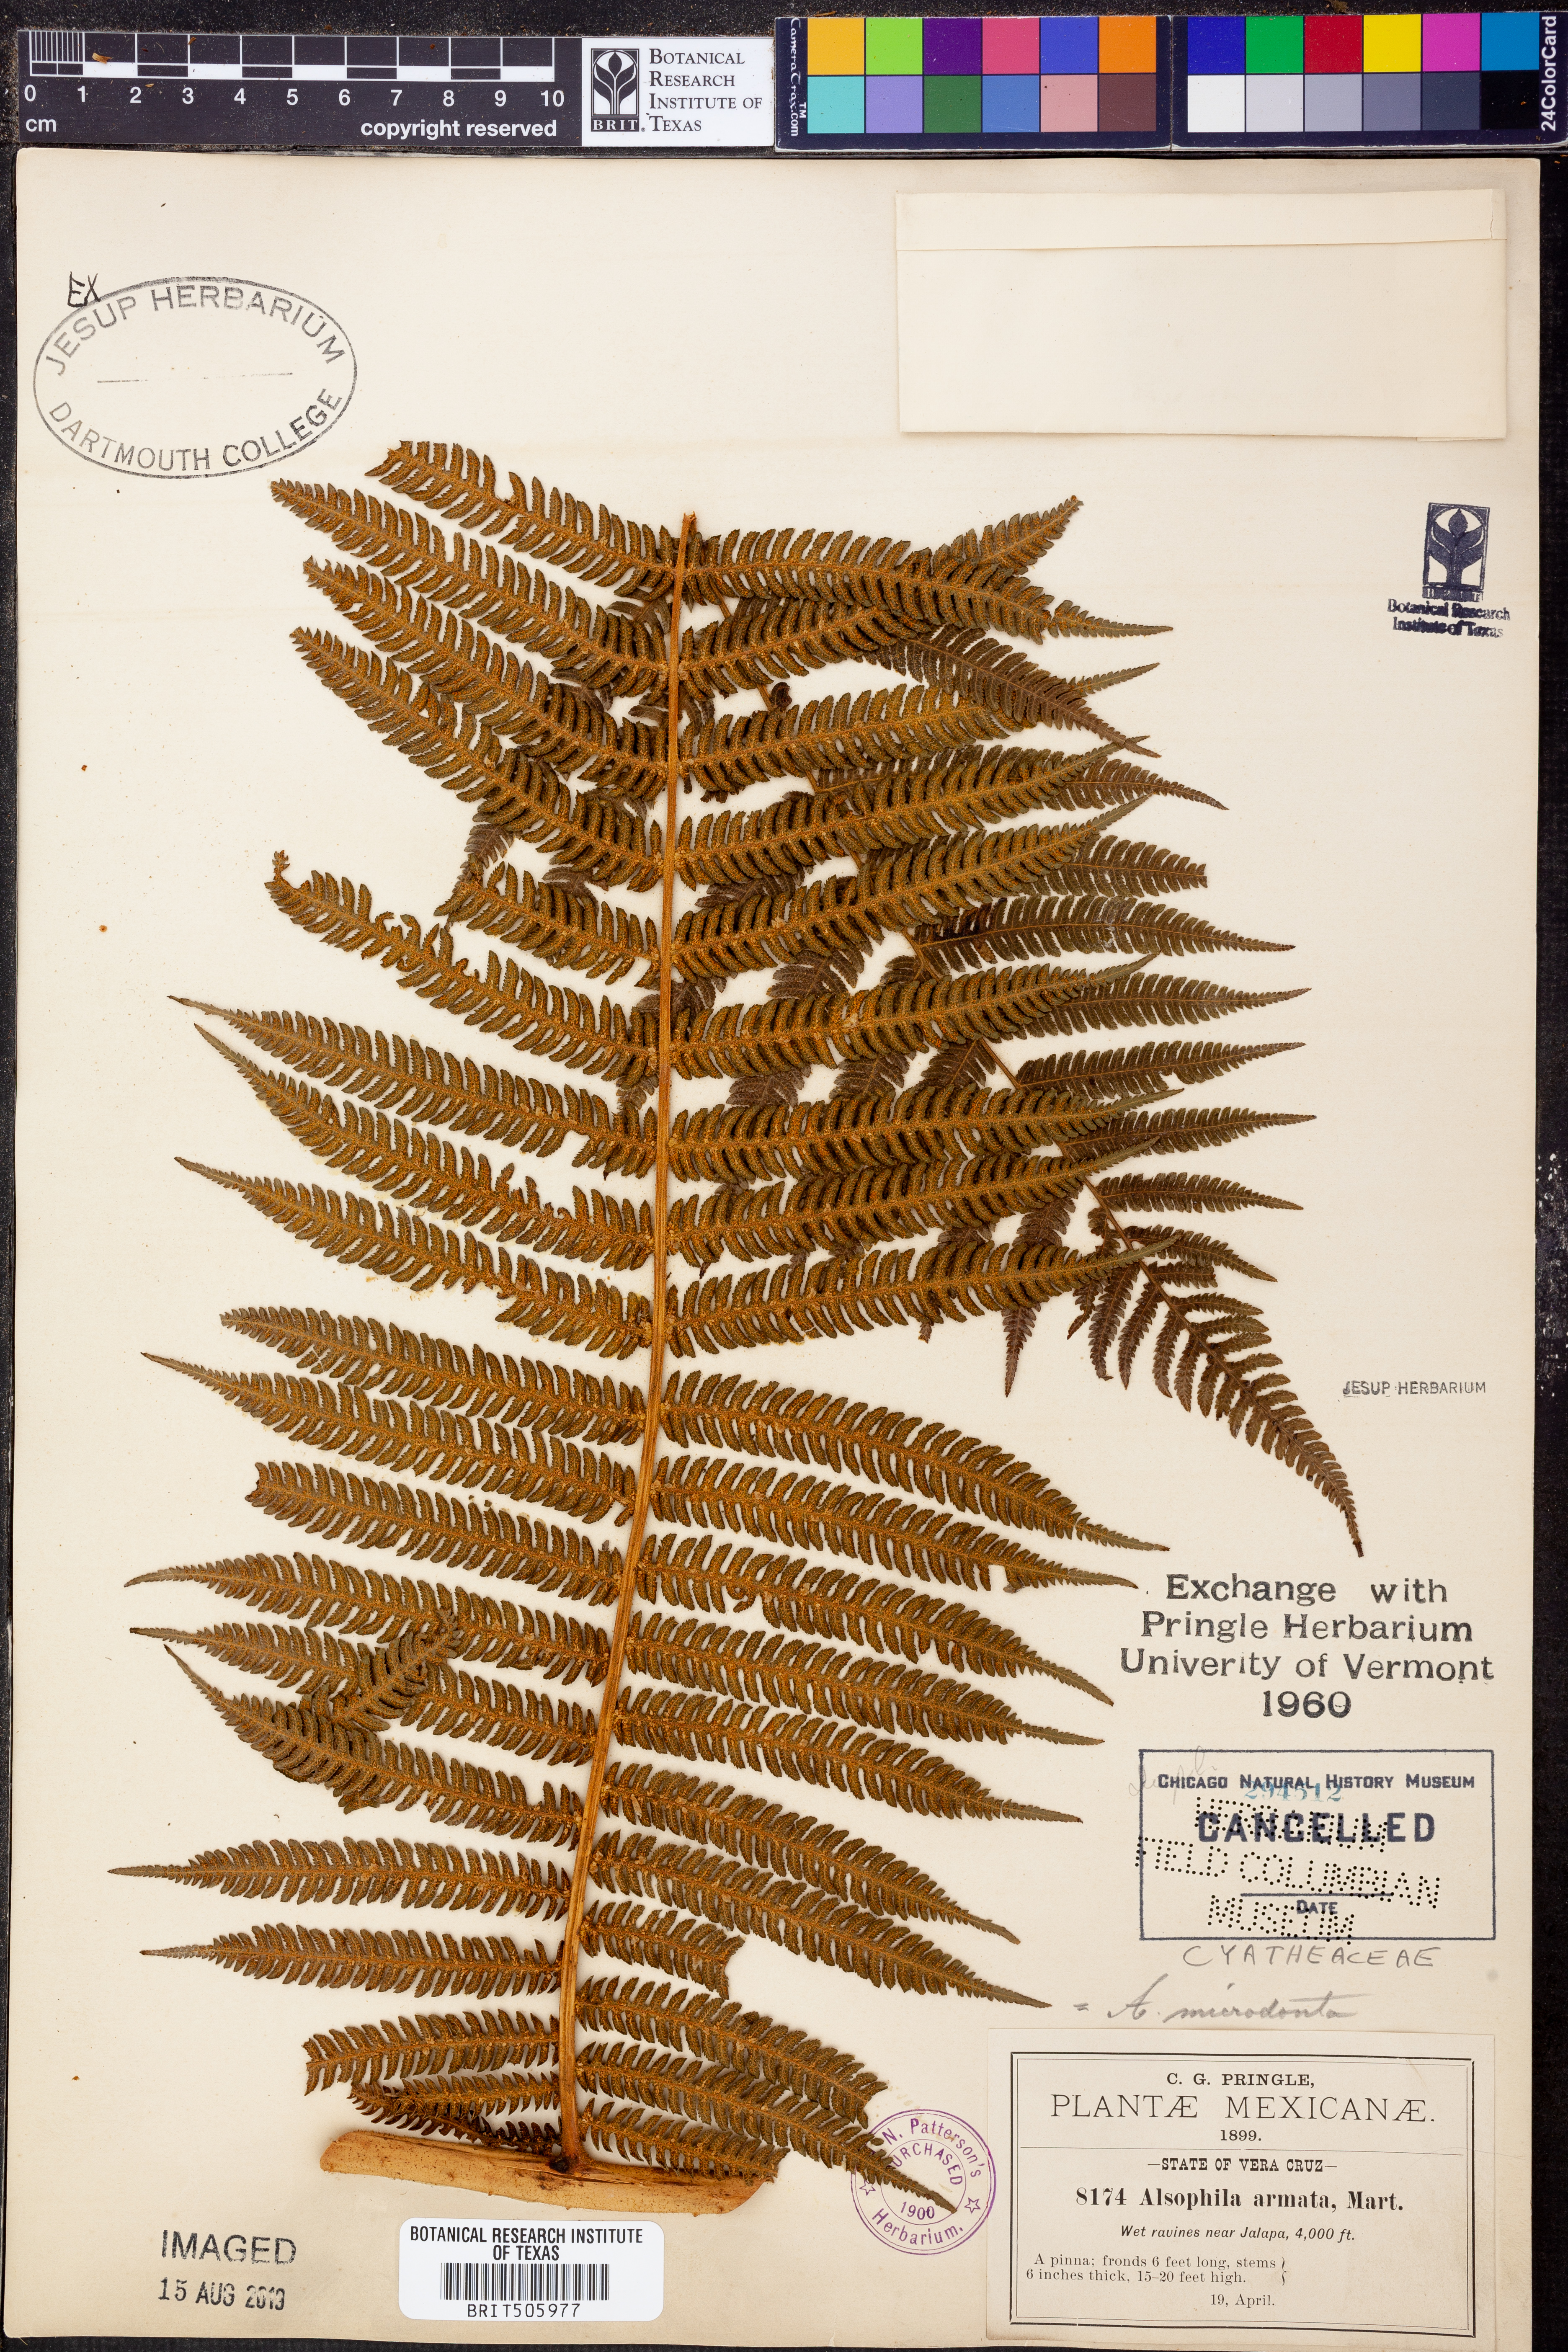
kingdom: Plantae
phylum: Tracheophyta
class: Polypodiopsida
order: Cyatheales
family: Cyatheaceae
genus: Cyathea
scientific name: Cyathea microdonta
